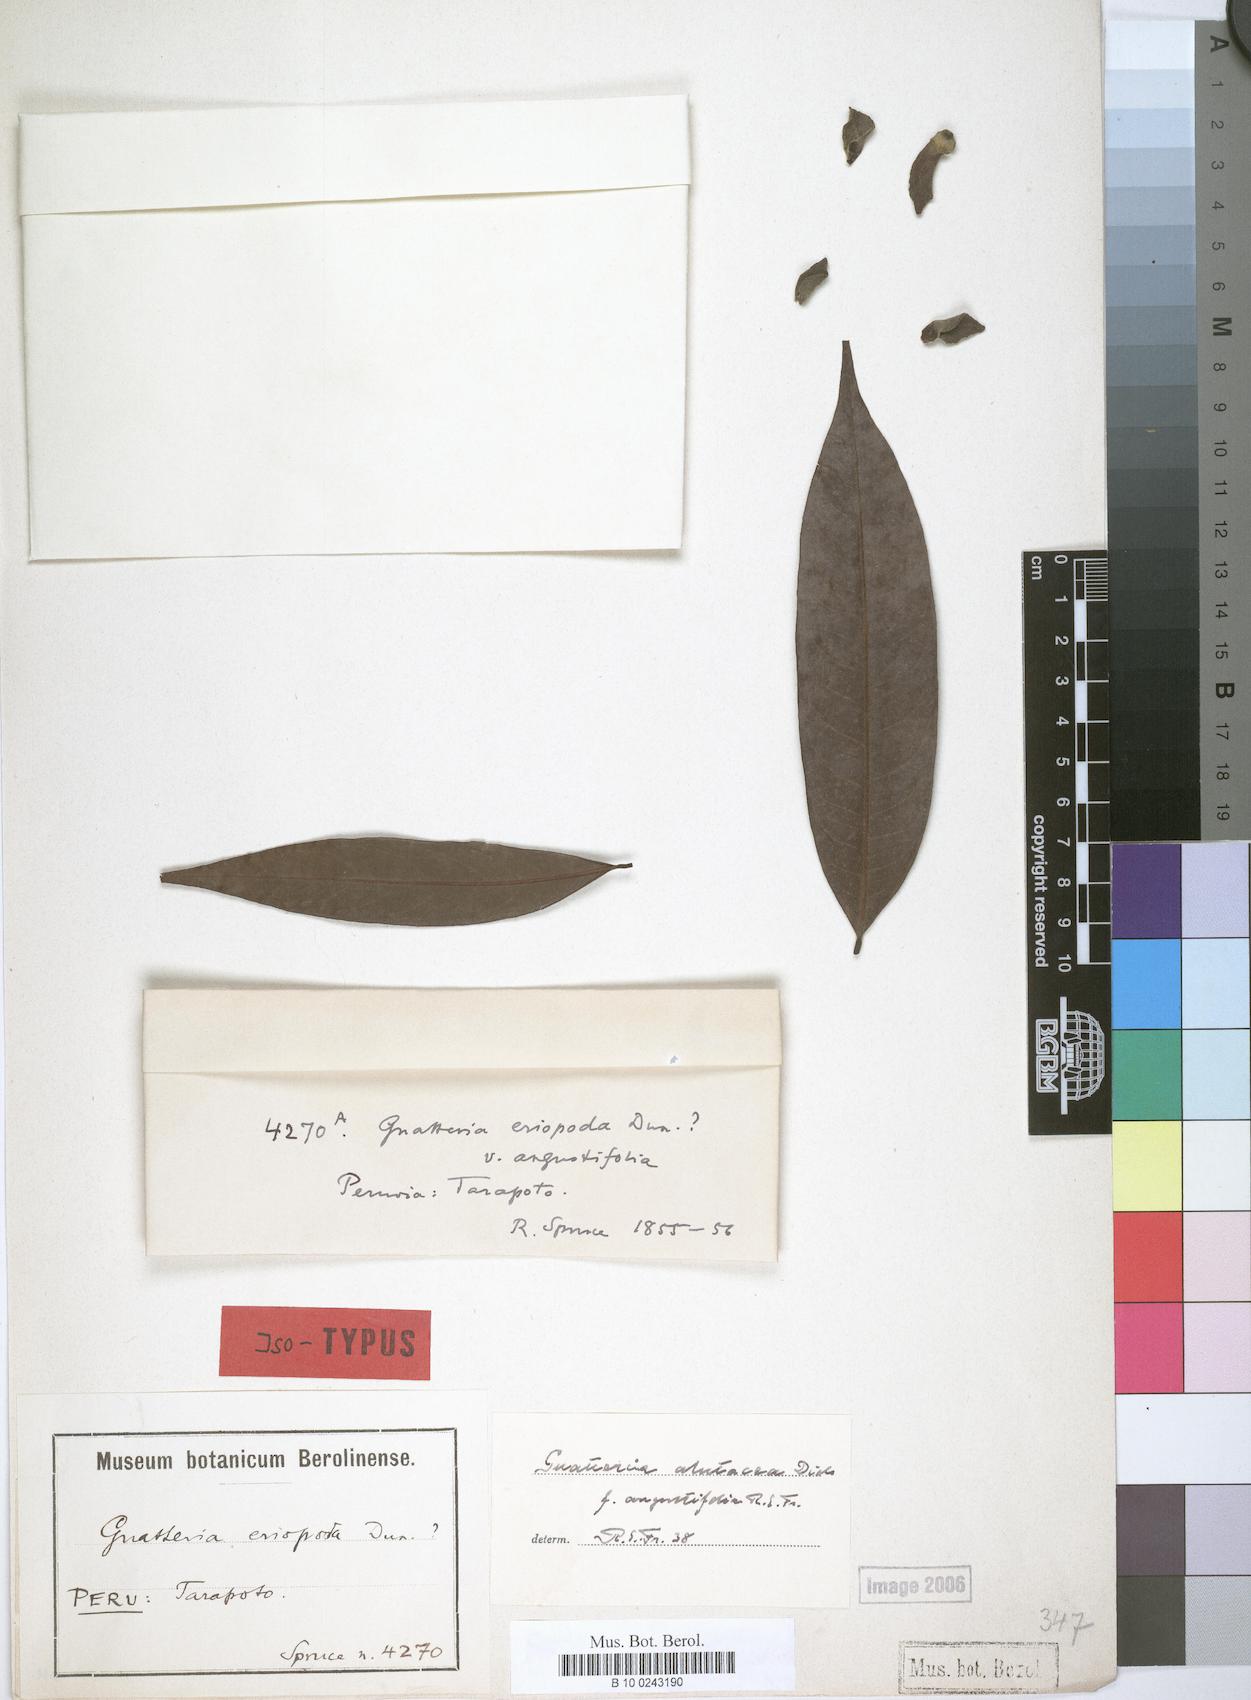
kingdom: Plantae
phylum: Tracheophyta
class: Magnoliopsida
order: Magnoliales
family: Annonaceae
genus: Guatteria
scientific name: Guatteria alutacea
